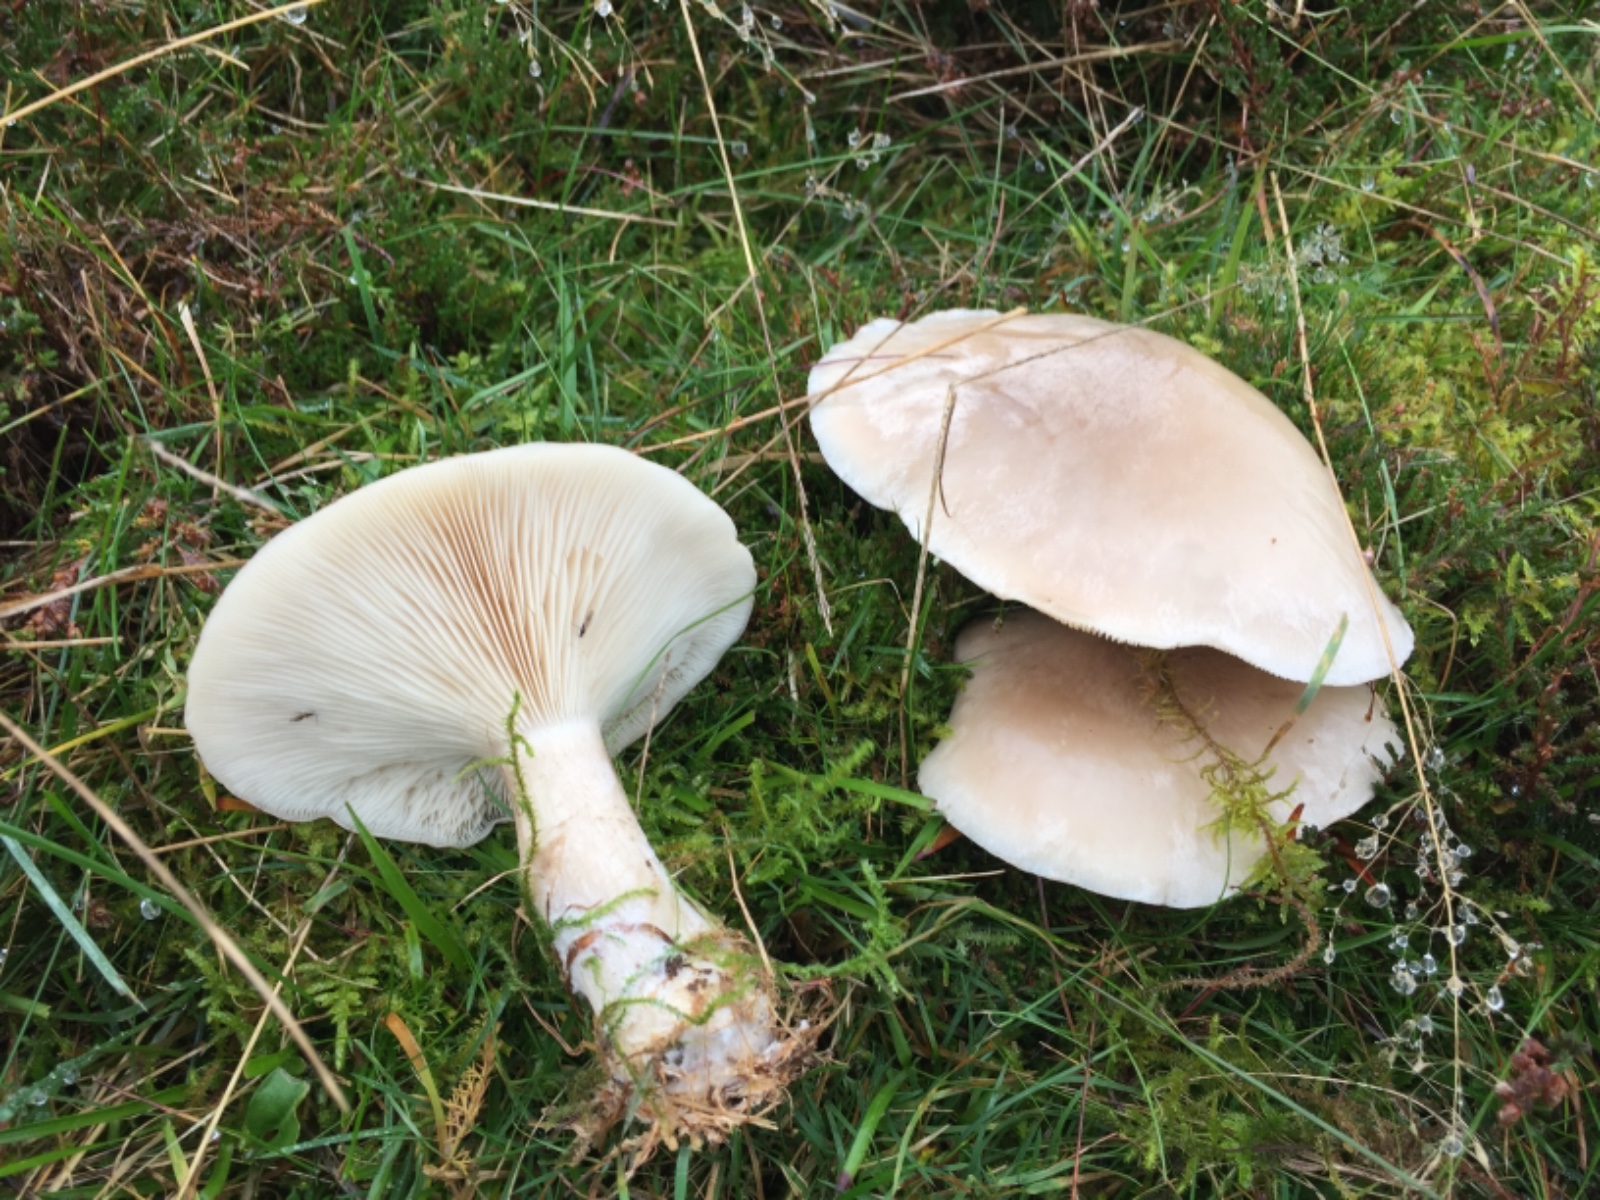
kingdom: Fungi
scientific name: Fungi
